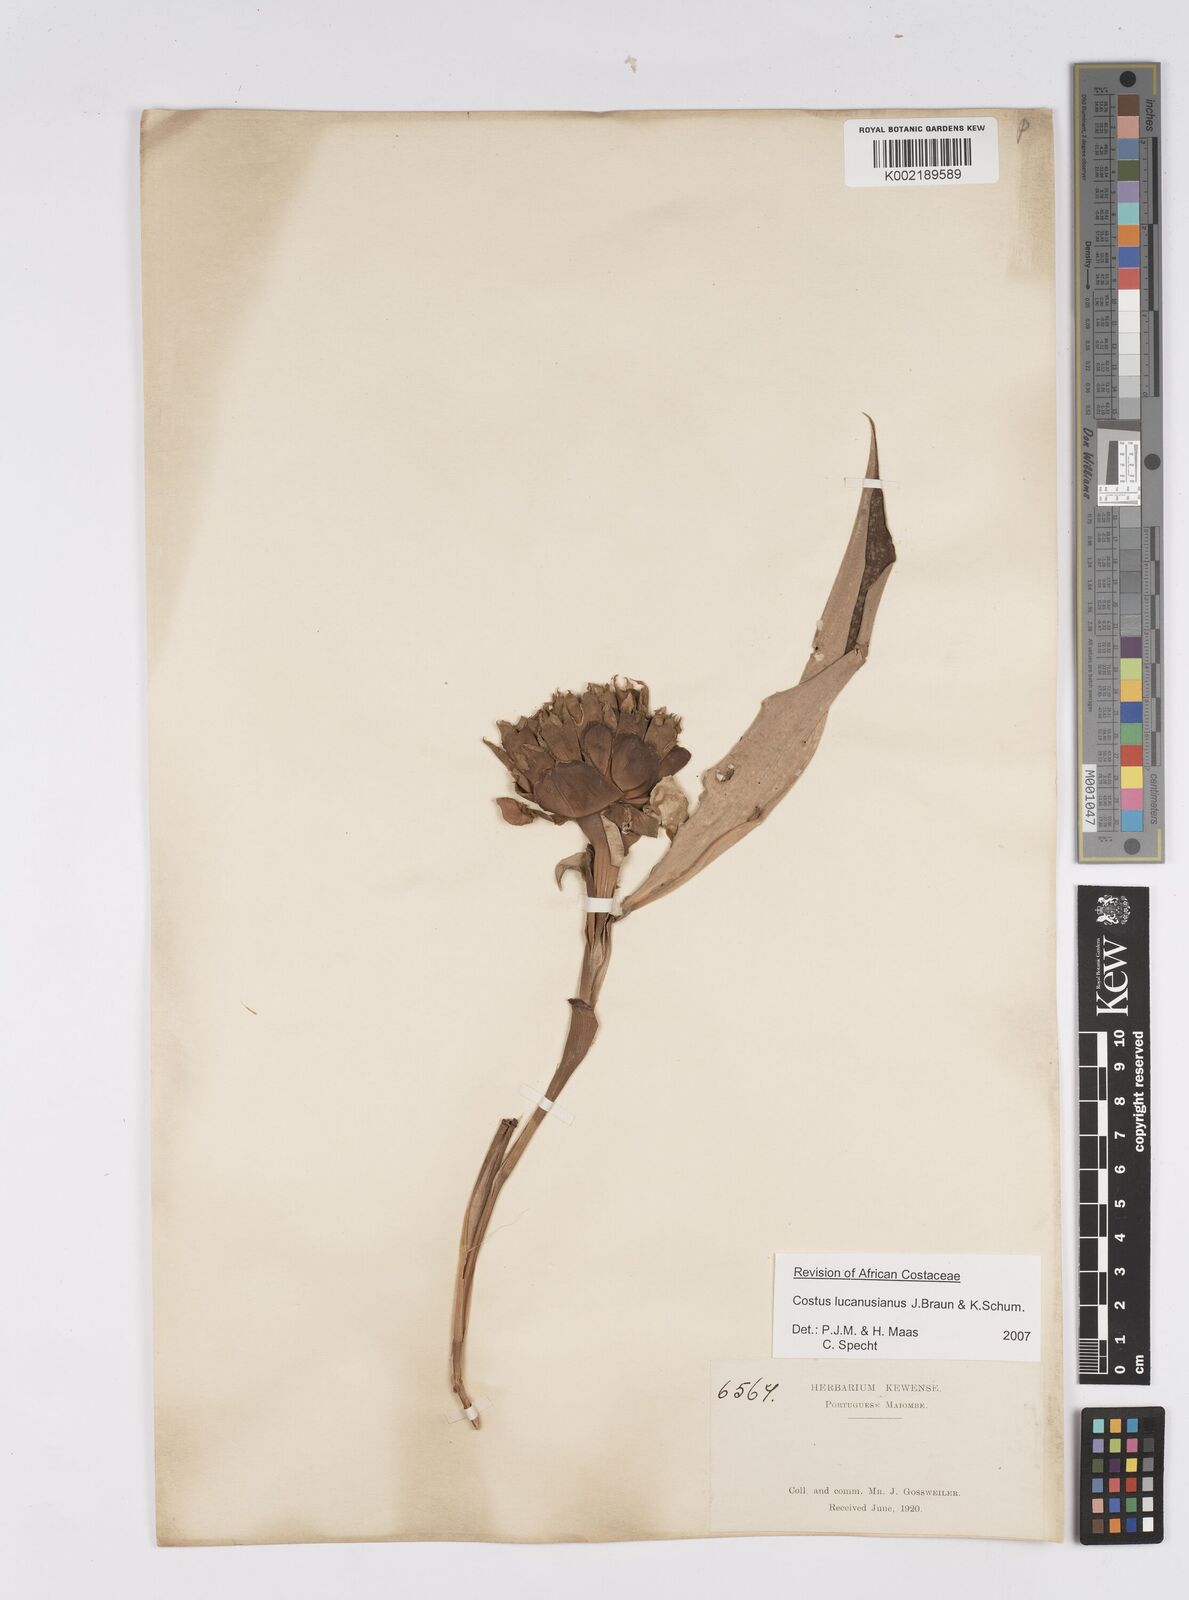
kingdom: Plantae
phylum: Tracheophyta
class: Liliopsida
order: Zingiberales
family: Costaceae
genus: Costus
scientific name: Costus lucanusianus
